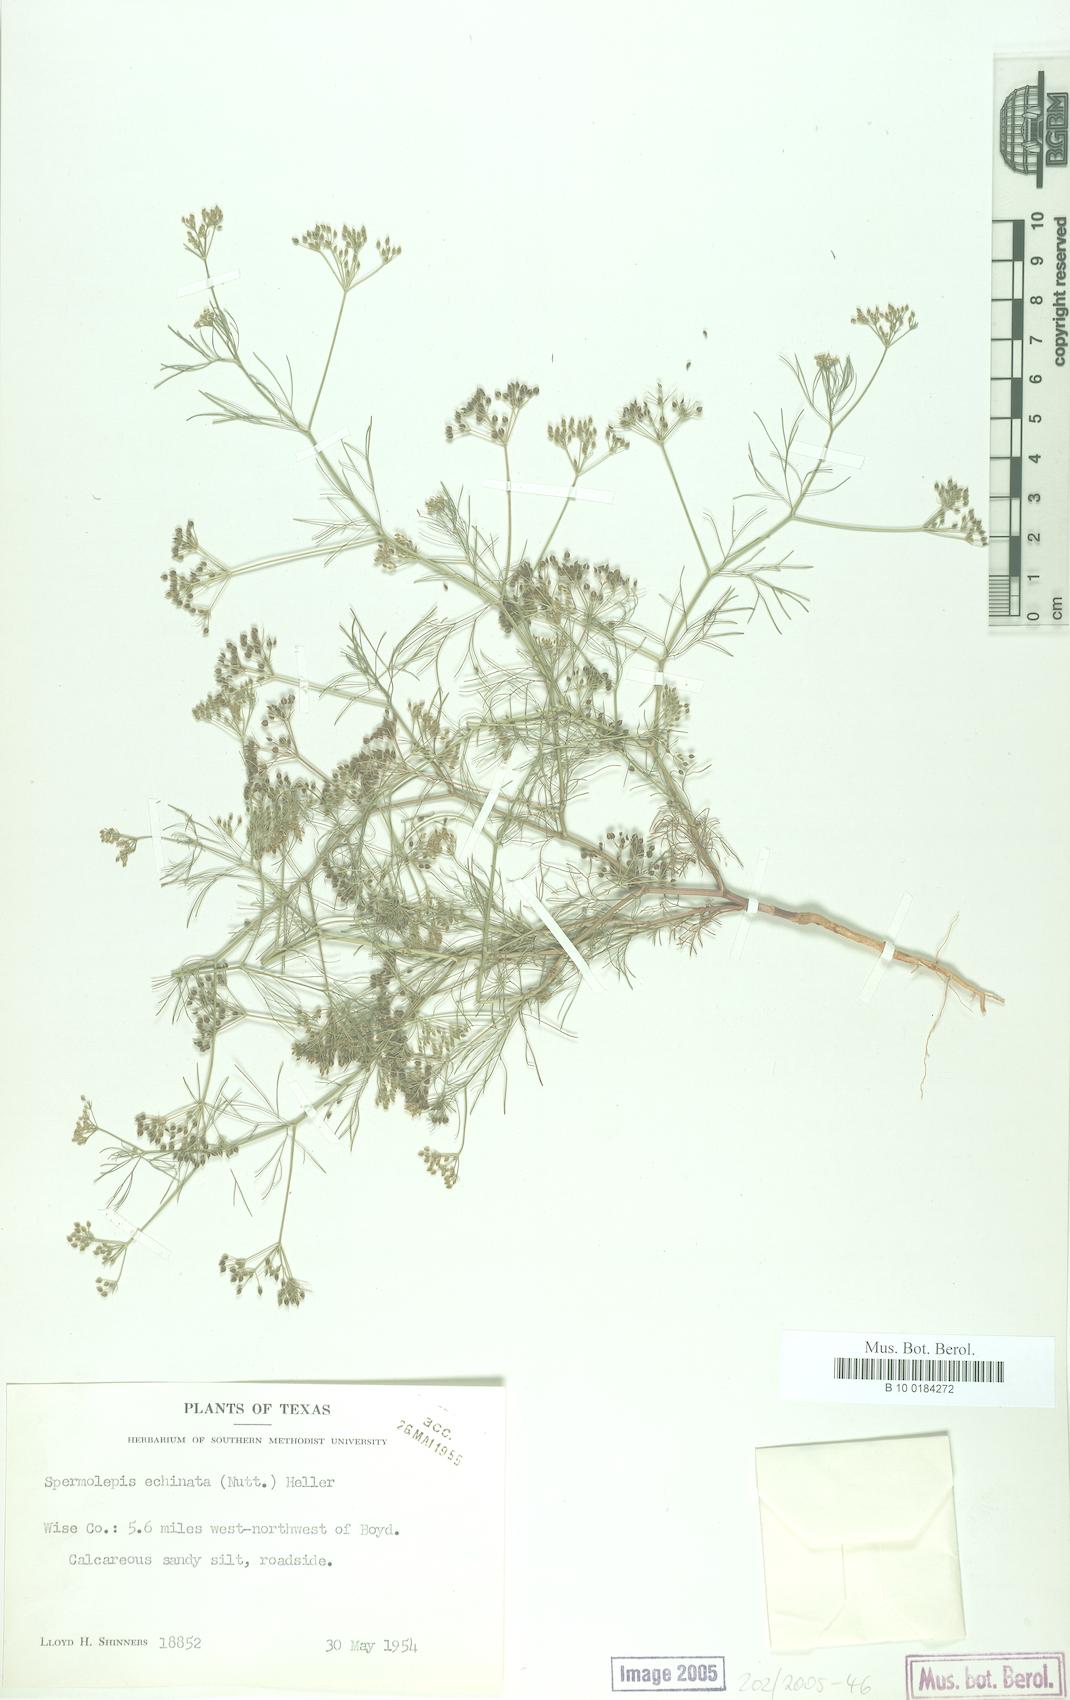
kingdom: Plantae
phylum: Tracheophyta
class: Magnoliopsida
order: Apiales
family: Apiaceae
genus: Spermolepis
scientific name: Spermolepis echinata
